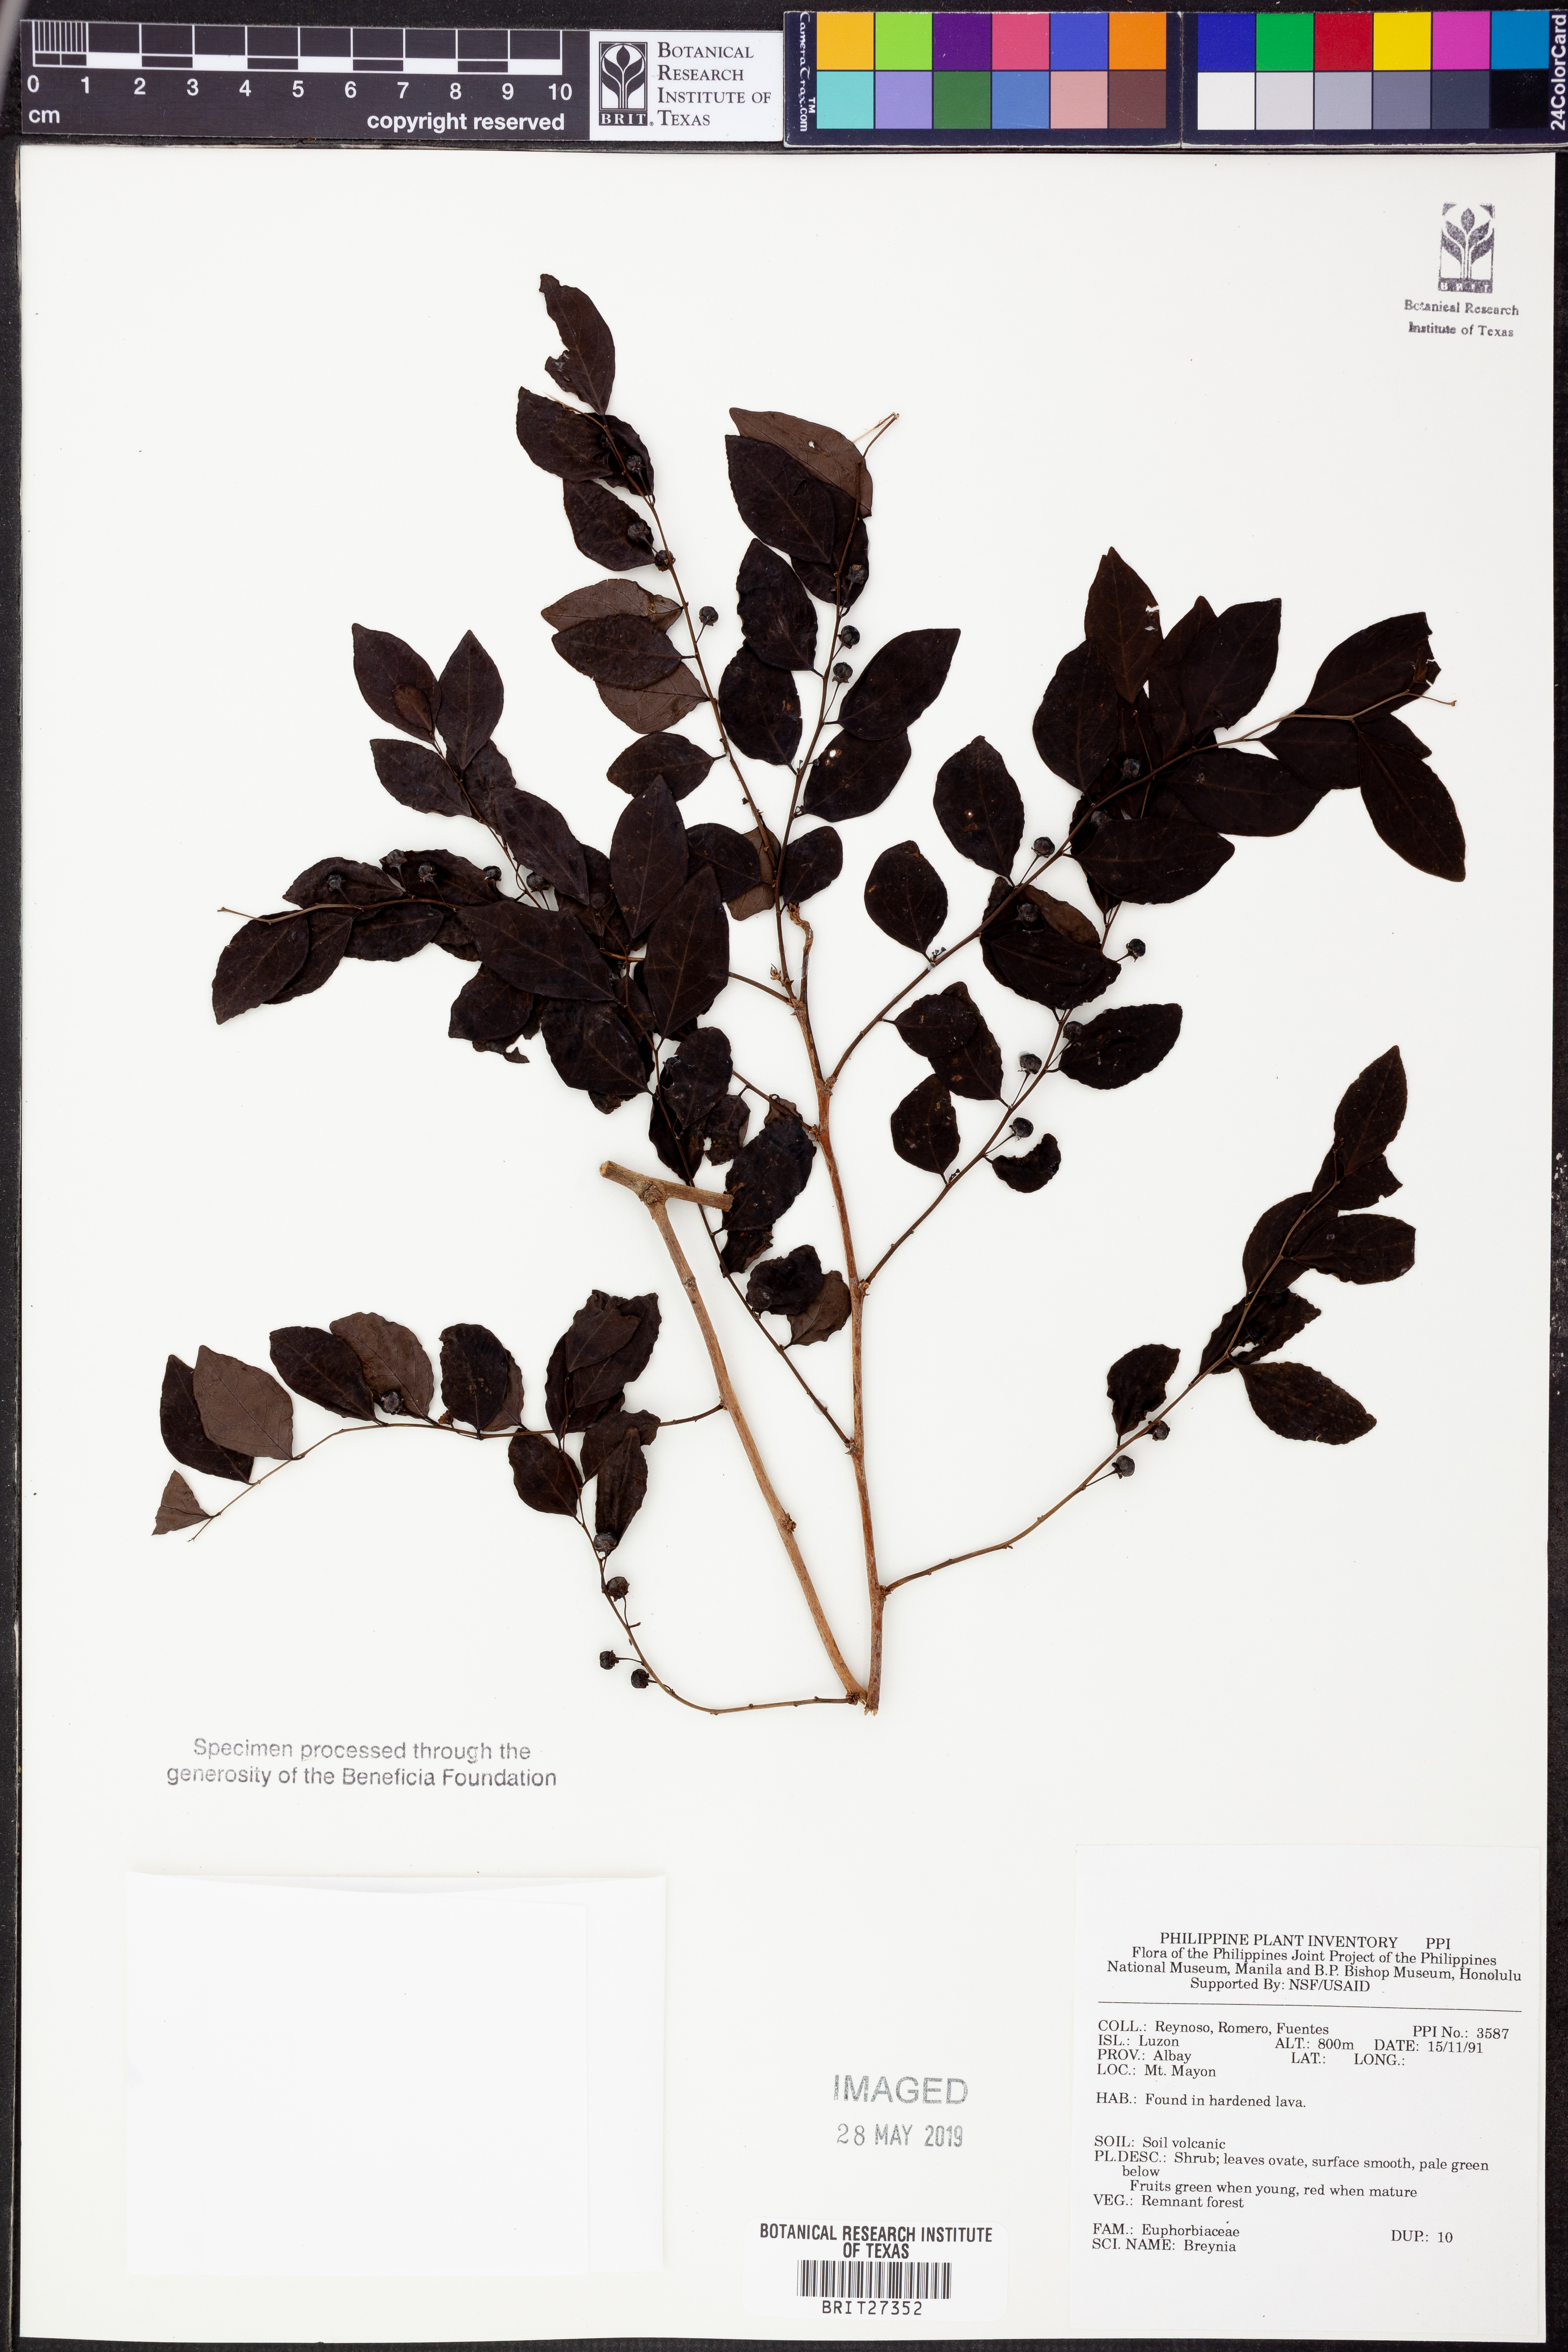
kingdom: Plantae
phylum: Tracheophyta
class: Magnoliopsida
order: Malpighiales
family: Phyllanthaceae
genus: Breynia
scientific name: Breynia
